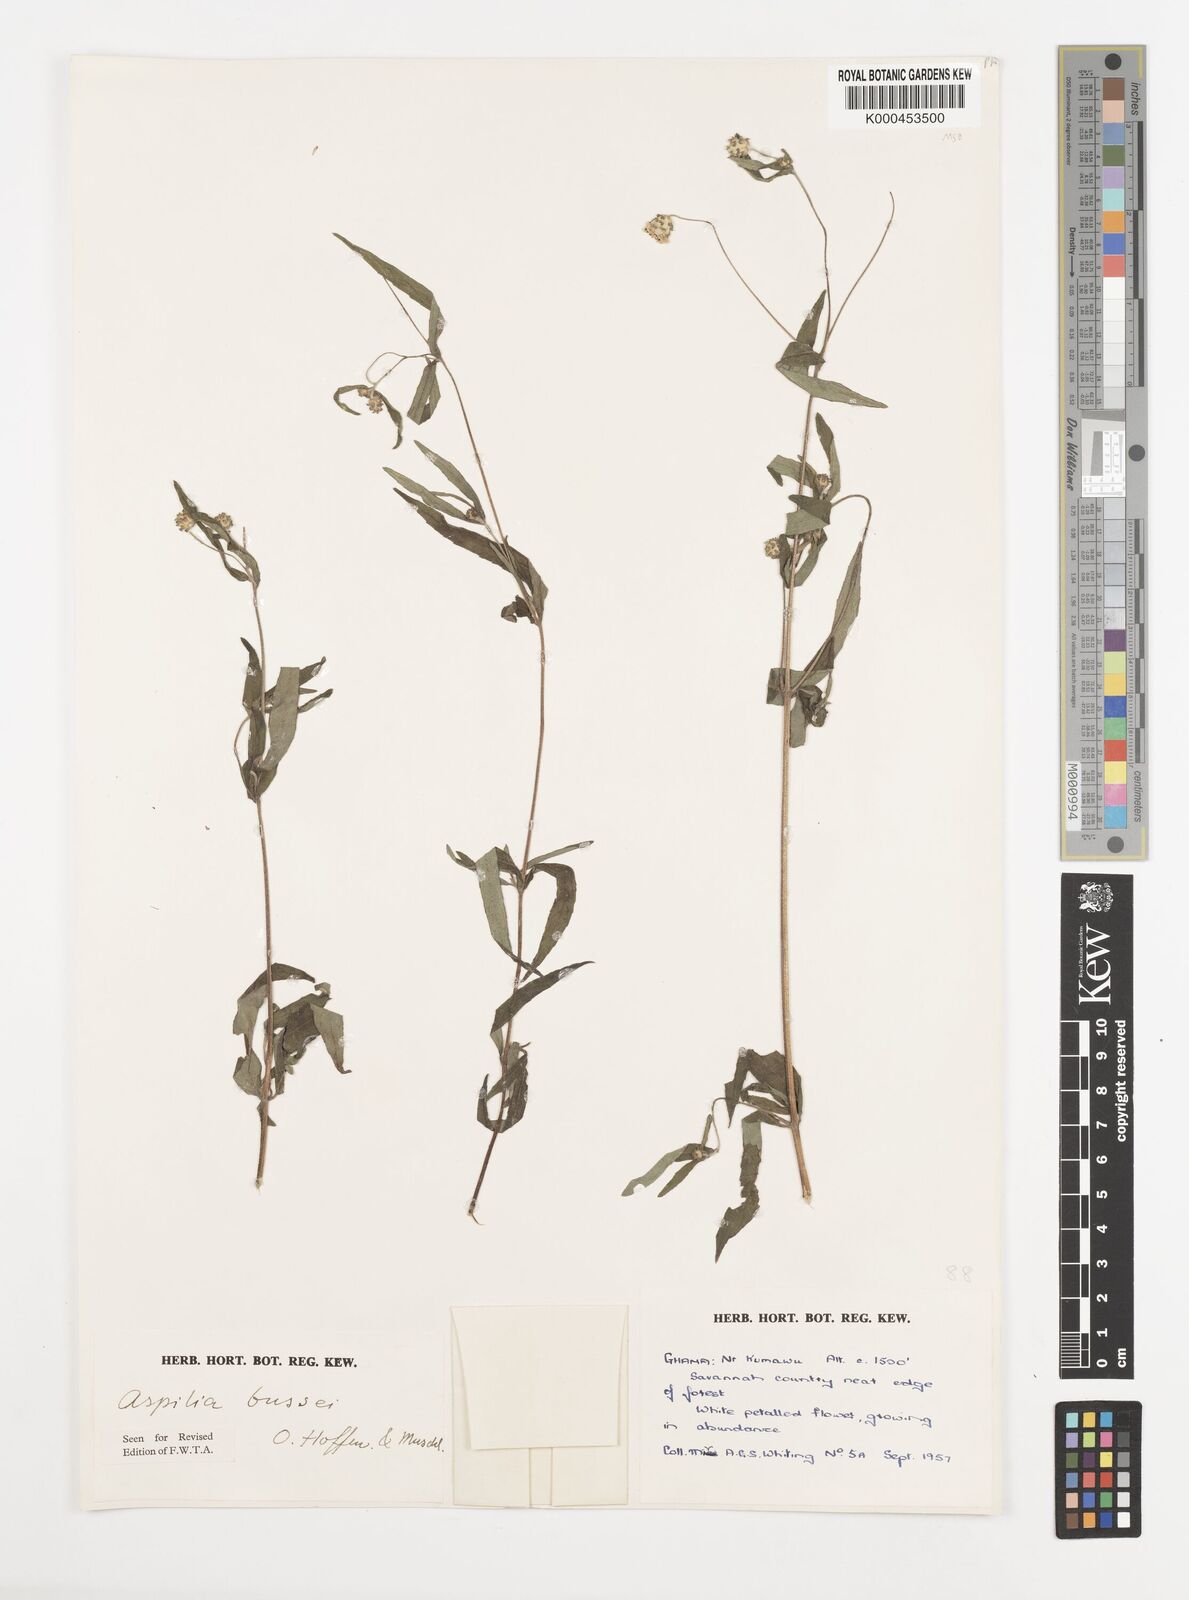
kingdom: Plantae
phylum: Tracheophyta
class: Magnoliopsida
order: Asterales
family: Asteraceae
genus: Aspilia
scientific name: Aspilia bussei
